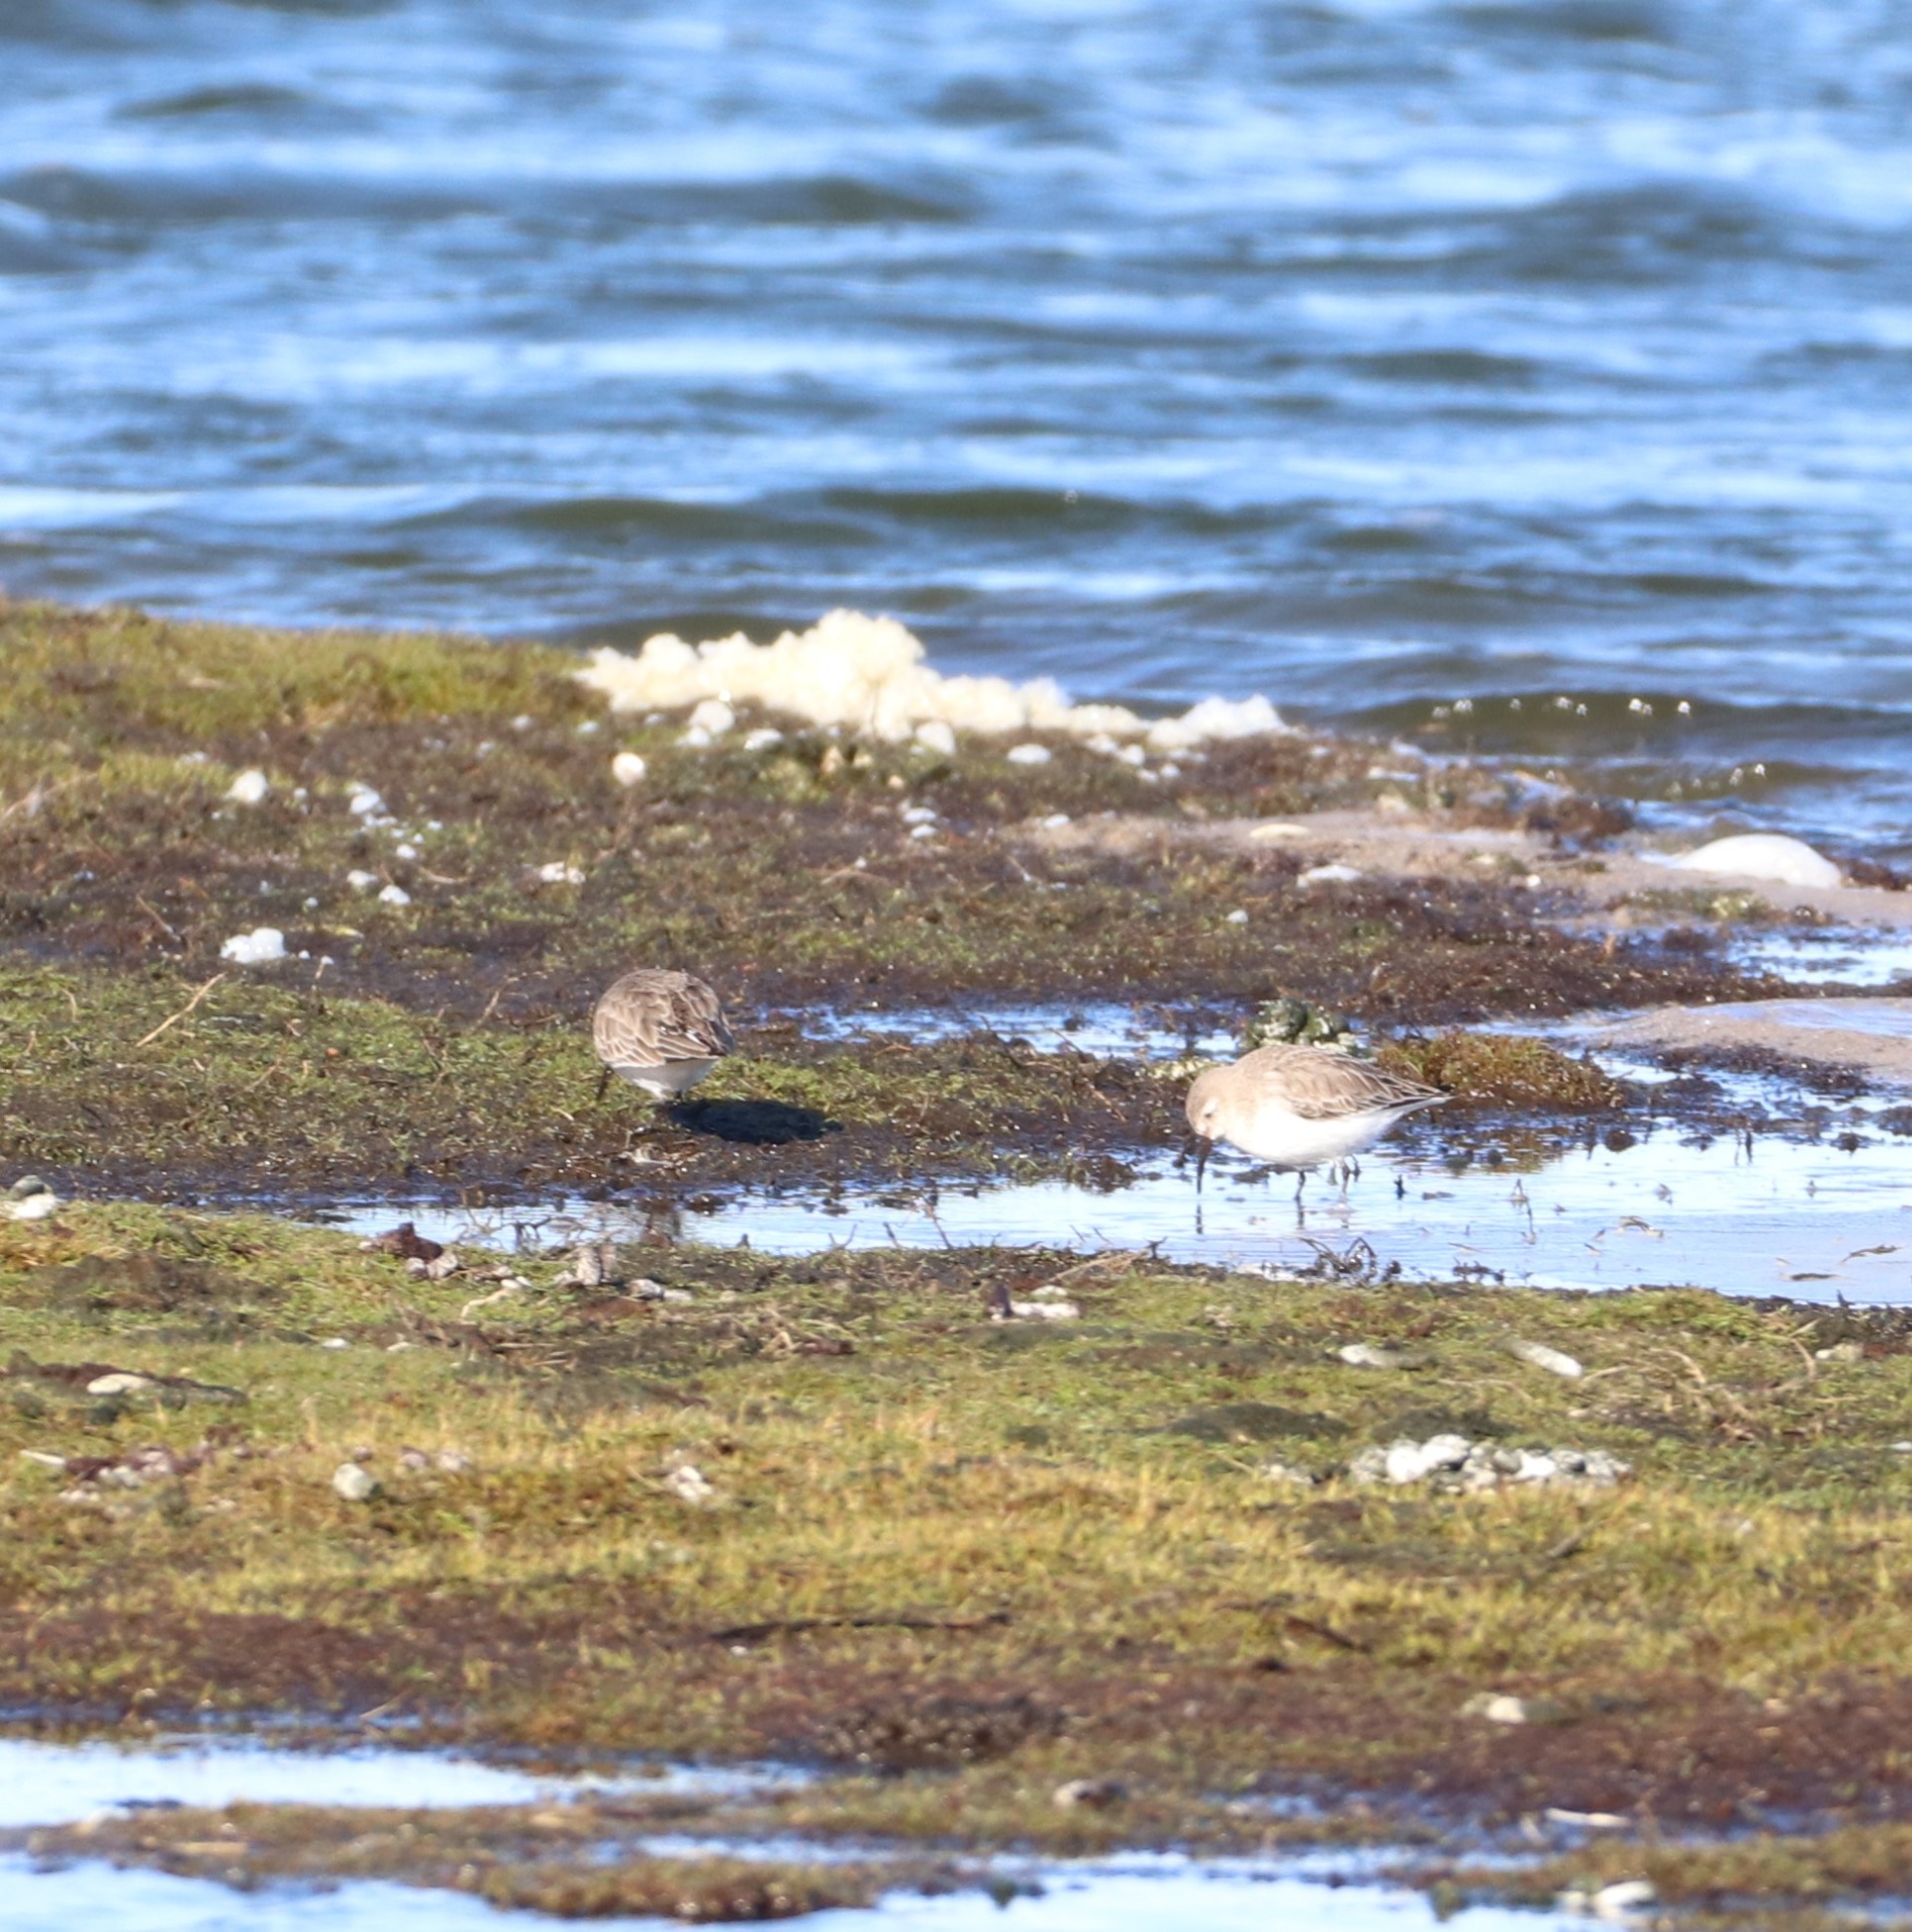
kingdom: Animalia
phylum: Chordata
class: Aves
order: Charadriiformes
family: Scolopacidae
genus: Calidris
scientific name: Calidris alpina
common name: Almindelig ryle
